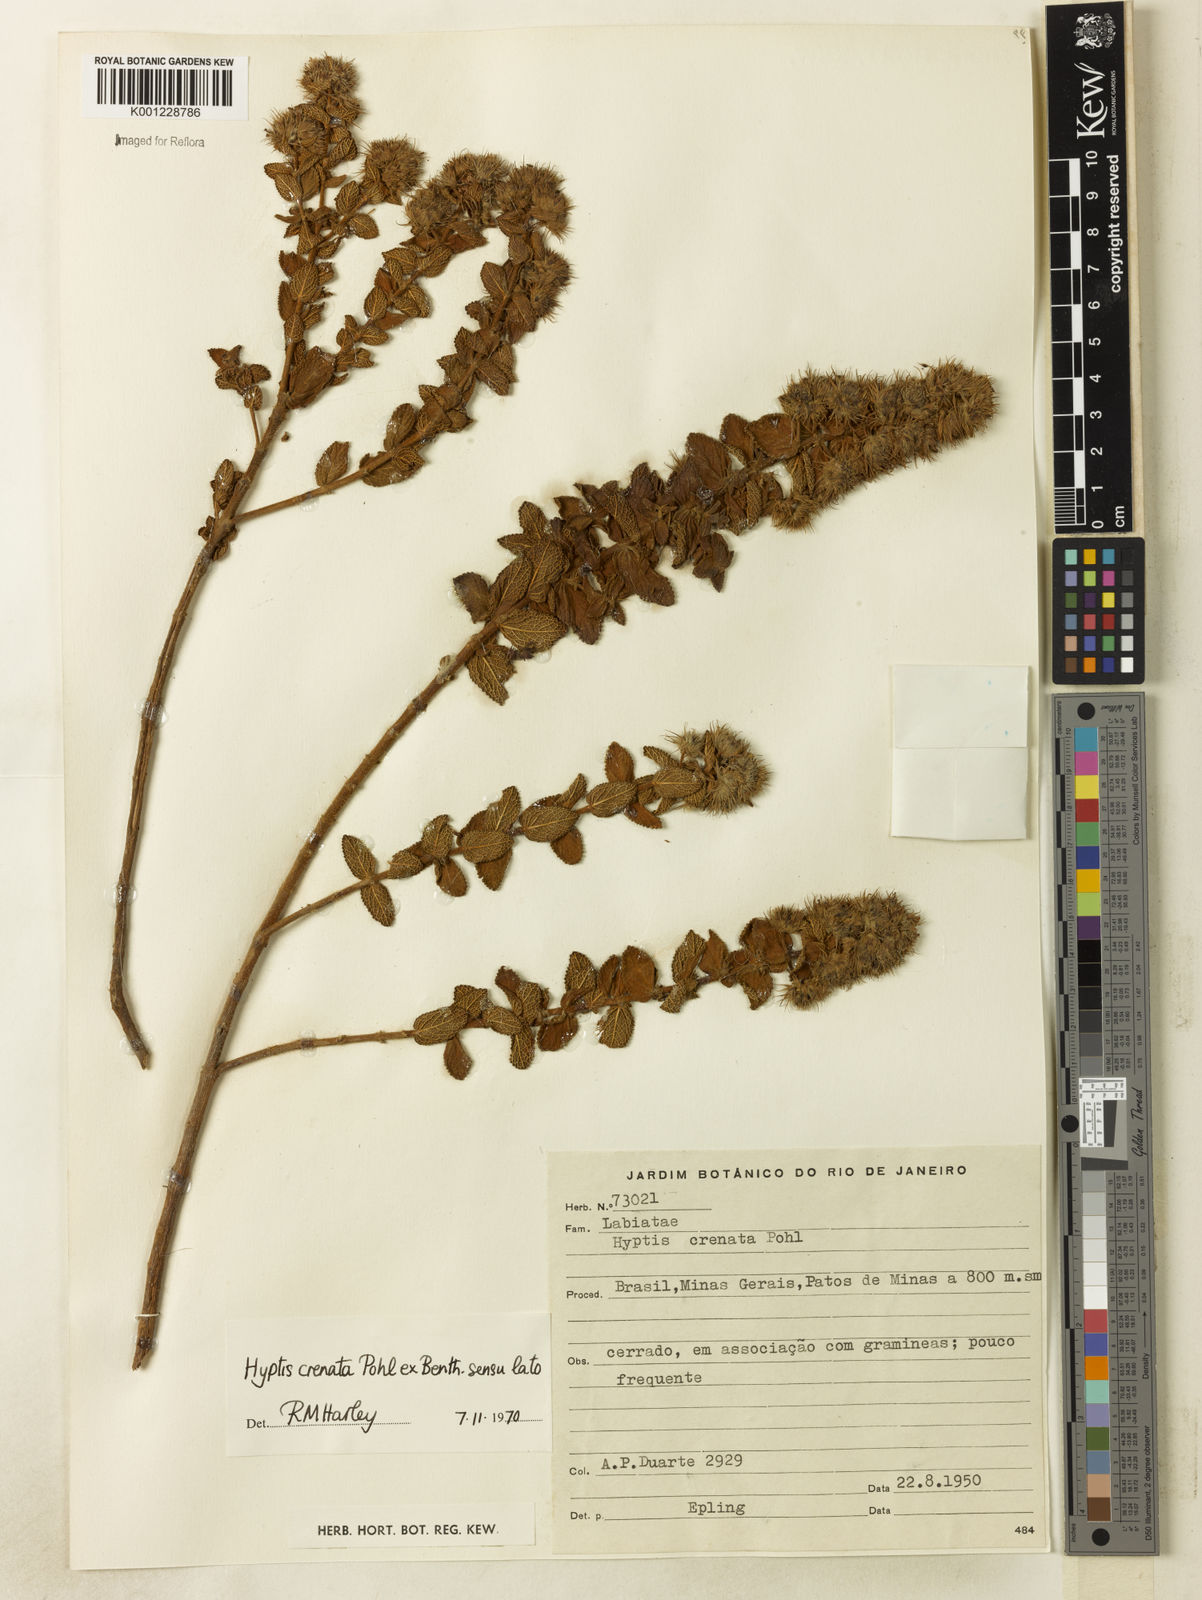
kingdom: Plantae
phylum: Tracheophyta
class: Magnoliopsida
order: Lamiales
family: Lamiaceae
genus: Hyptis
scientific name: Hyptis crenata
